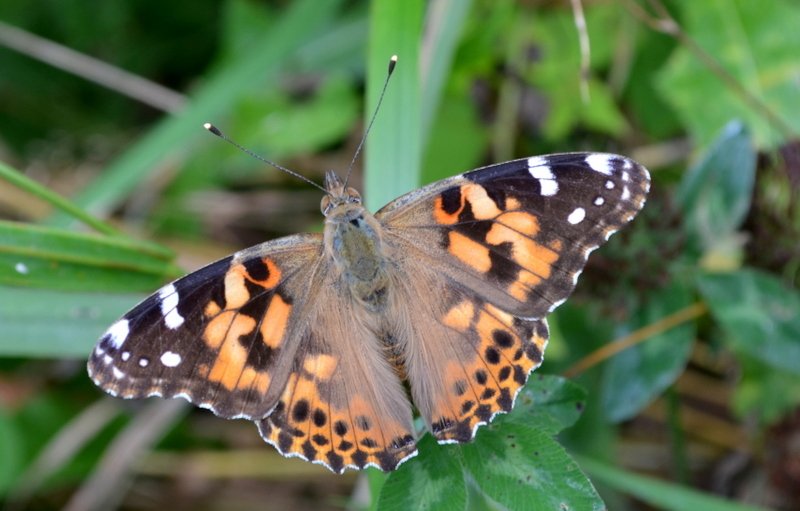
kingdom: Animalia
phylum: Arthropoda
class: Insecta
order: Lepidoptera
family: Nymphalidae
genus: Vanessa
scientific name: Vanessa cardui
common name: Painted Lady
